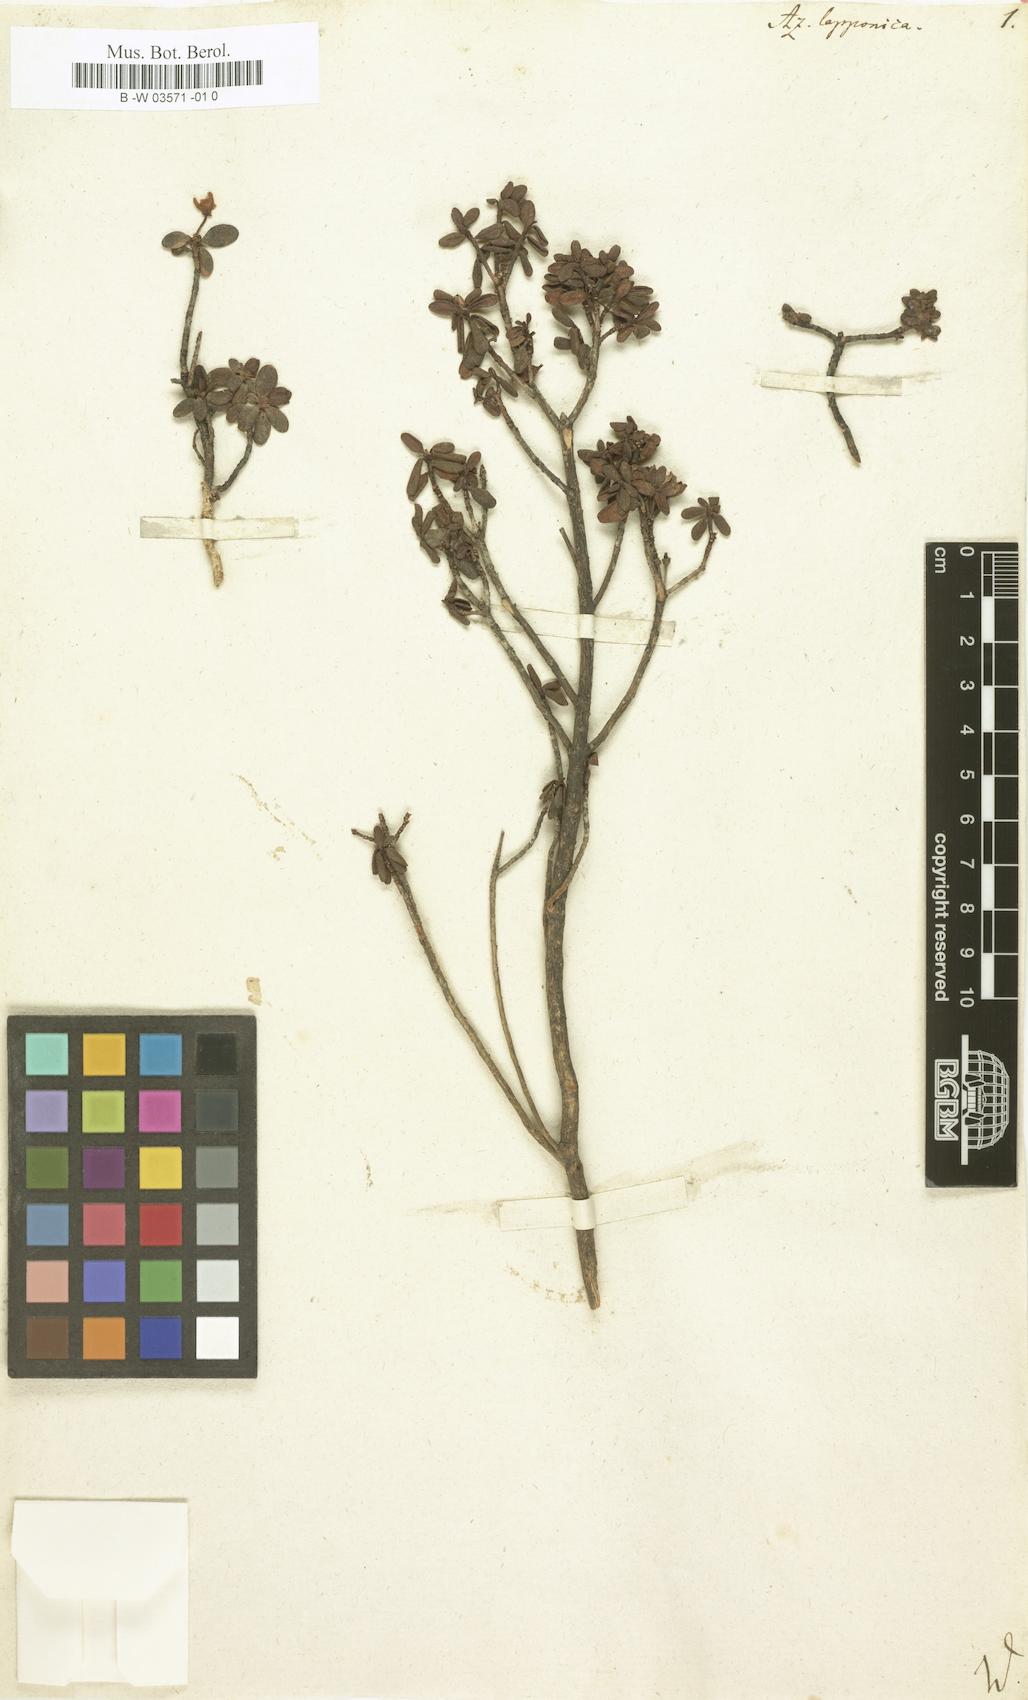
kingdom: Plantae
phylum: Tracheophyta
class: Magnoliopsida
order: Ericales
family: Ericaceae
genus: Rhododendron
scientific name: Rhododendron lapponicum
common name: Lapland rhododendron
